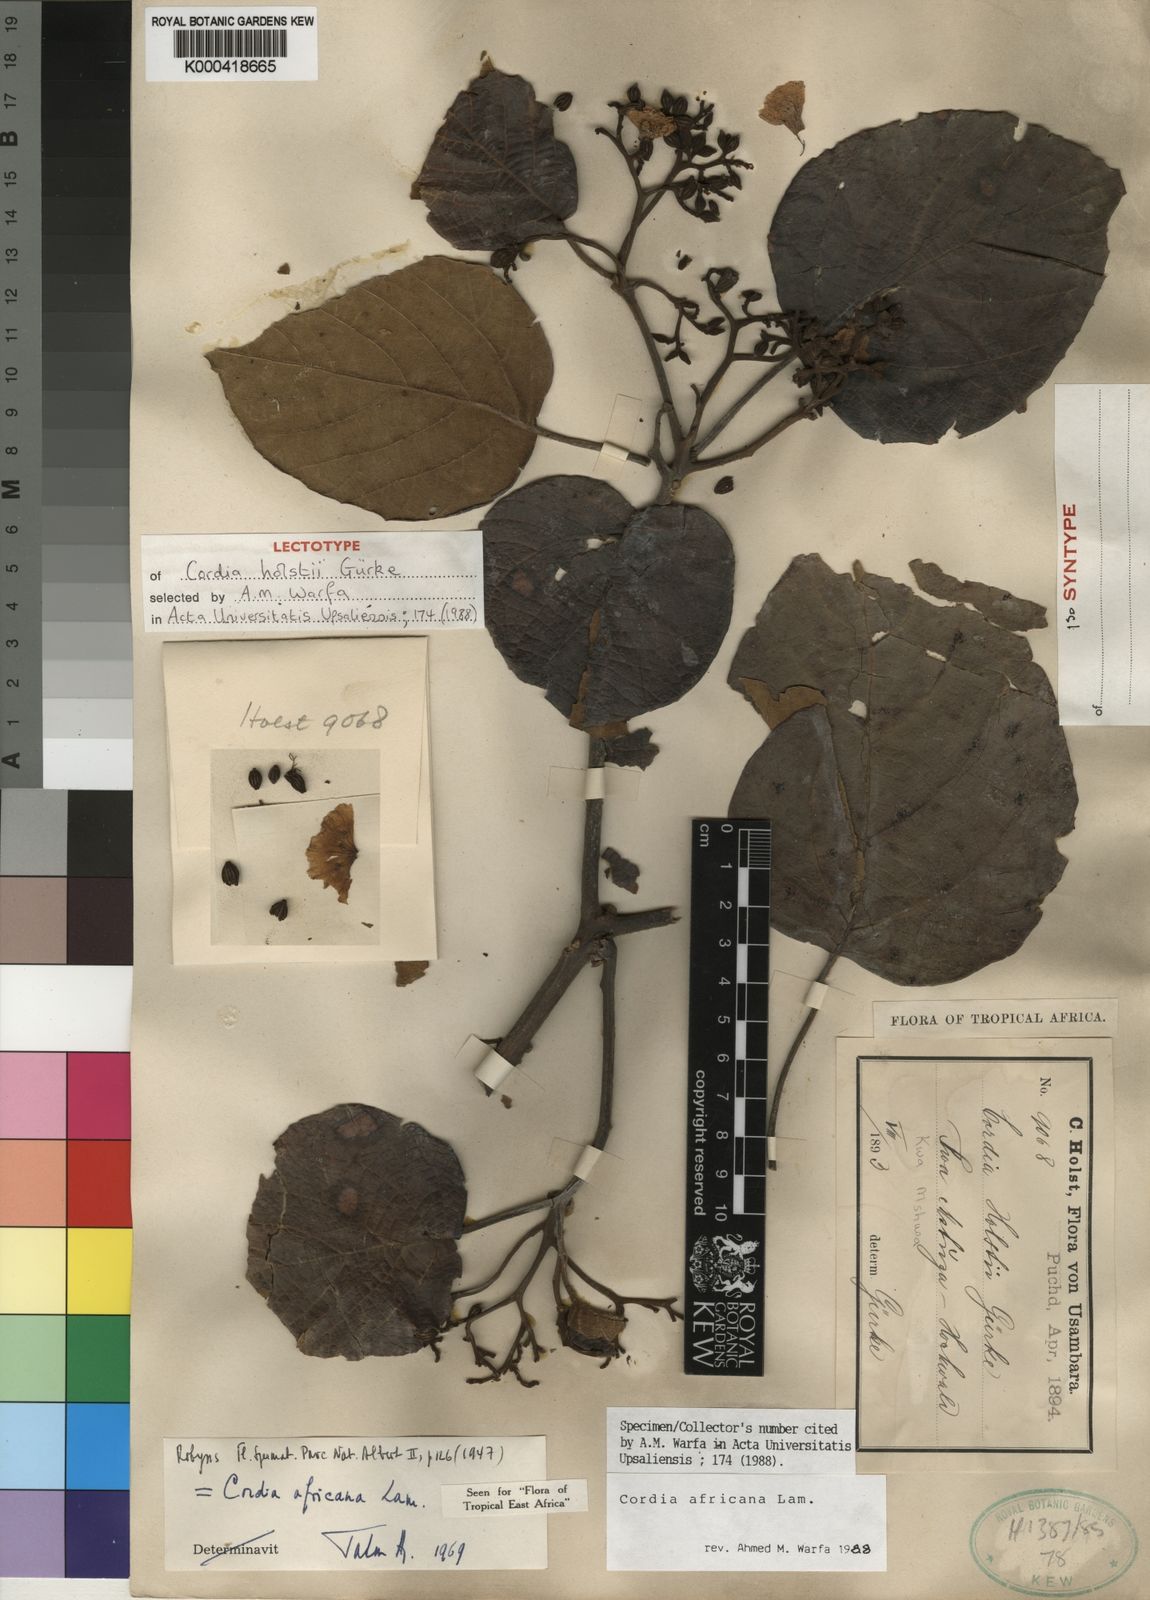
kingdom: Plantae
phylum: Tracheophyta
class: Magnoliopsida
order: Boraginales
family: Cordiaceae
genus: Cordia
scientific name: Cordia africana
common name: Large-leaved cordia
